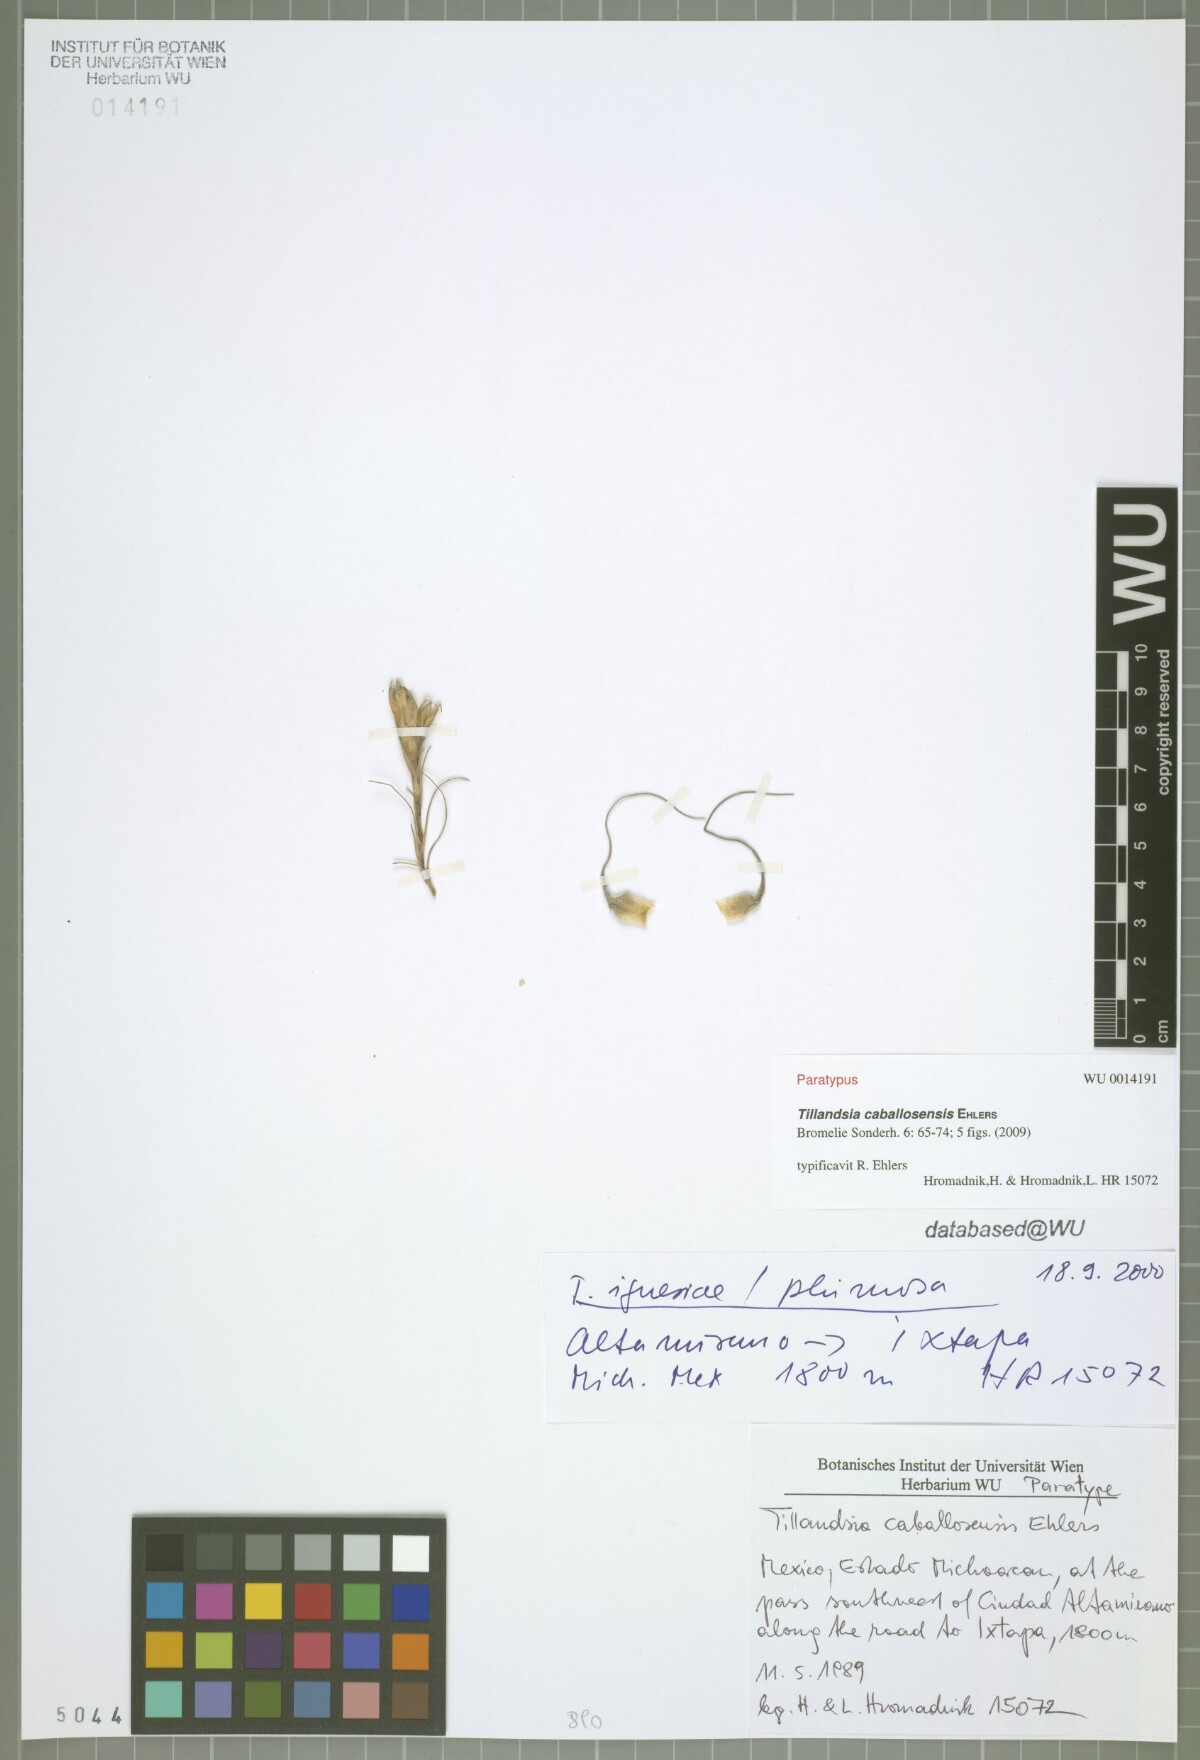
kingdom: Plantae
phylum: Tracheophyta
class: Liliopsida
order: Poales
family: Bromeliaceae
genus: Tillandsia
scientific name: Tillandsia caballosensis
